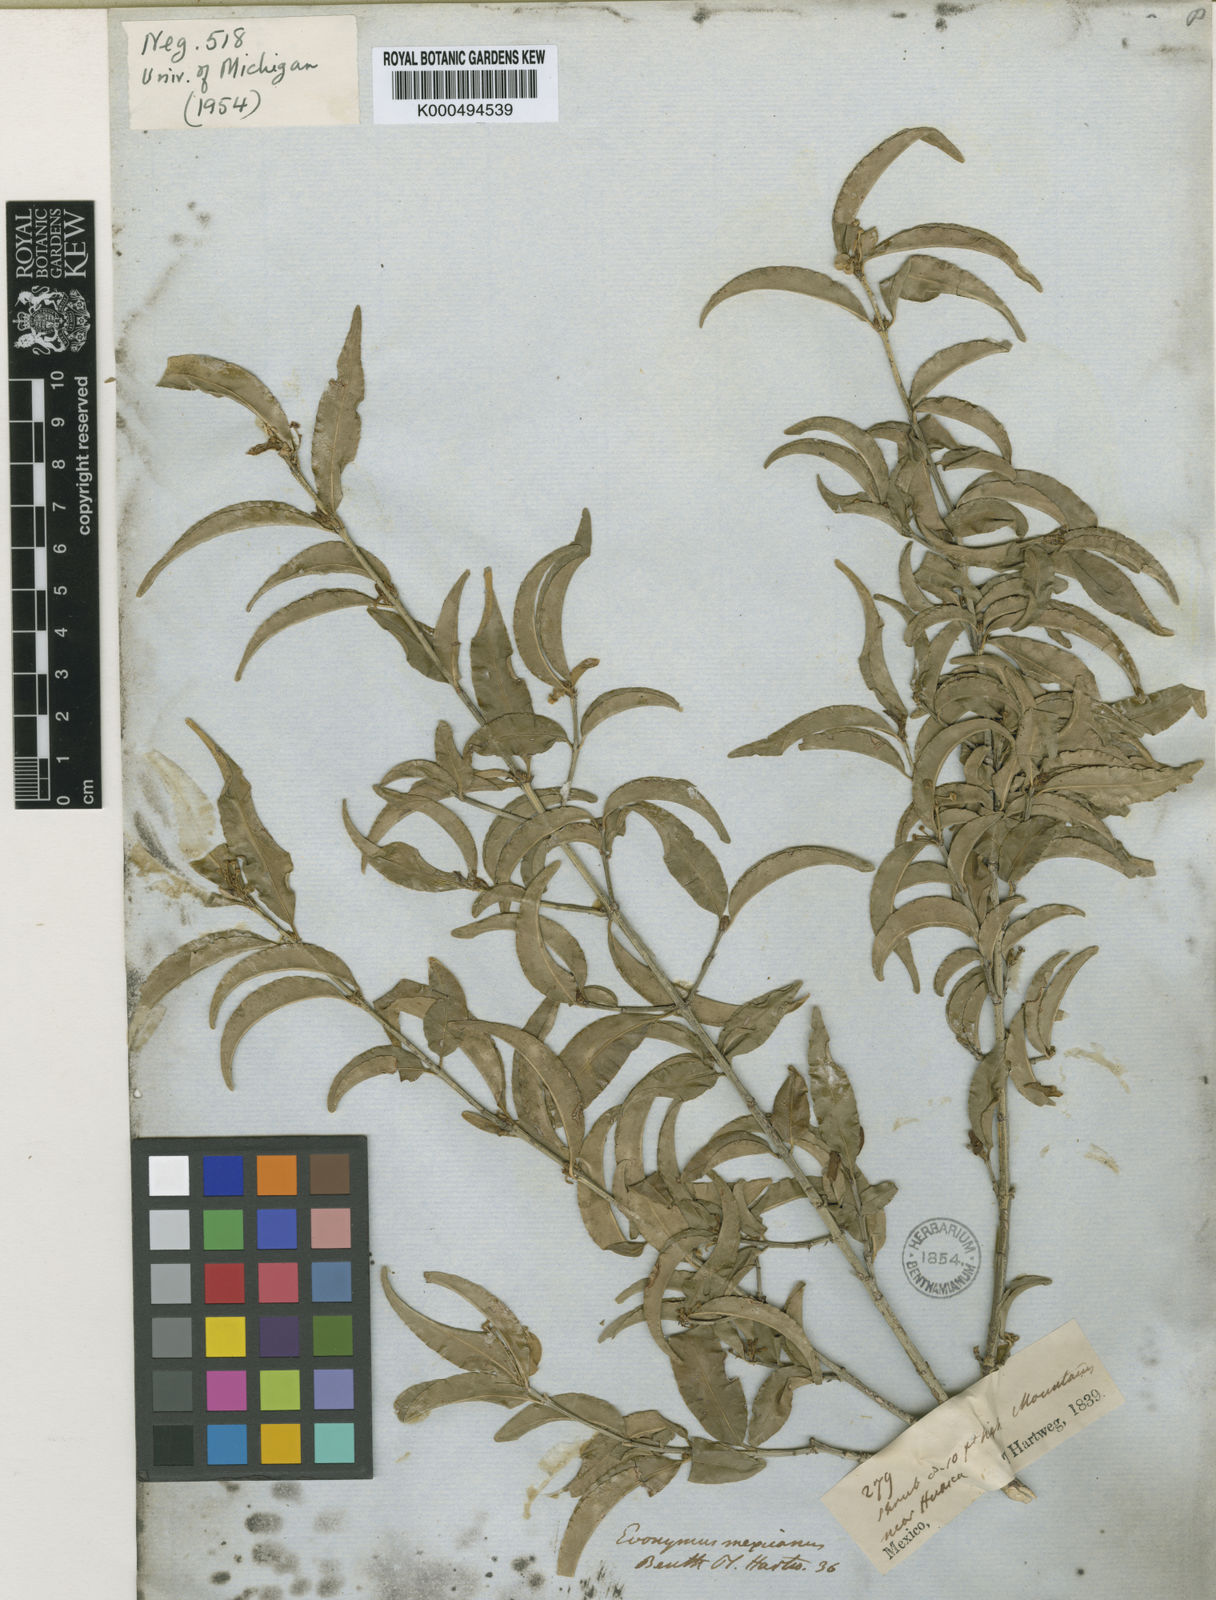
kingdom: Plantae
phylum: Tracheophyta
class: Magnoliopsida
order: Celastrales
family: Celastraceae
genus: Euonymus
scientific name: Euonymus mexicanus
